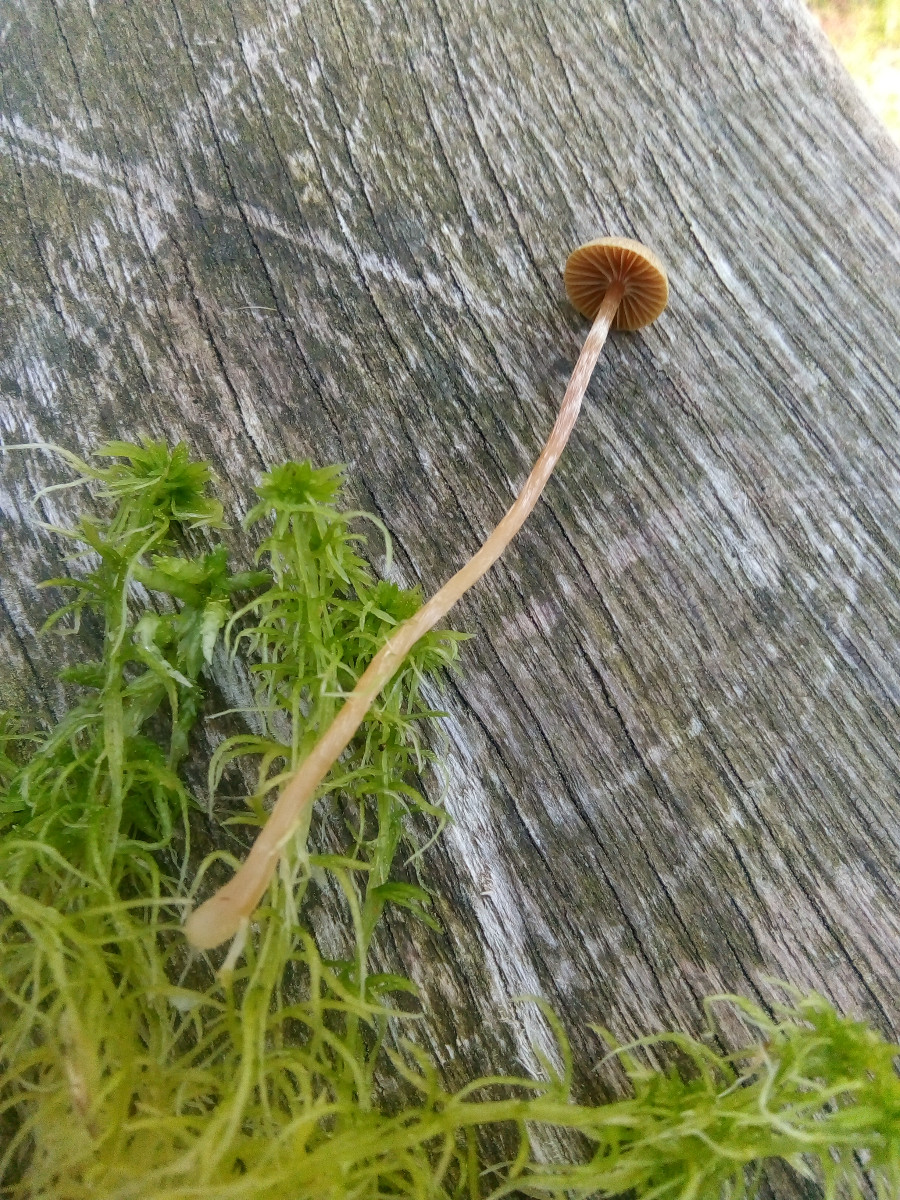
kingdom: Fungi
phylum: Basidiomycota
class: Agaricomycetes
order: Agaricales
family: Hymenogastraceae
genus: Galerina
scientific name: Galerina paludosa
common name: mose-hjelmhat
